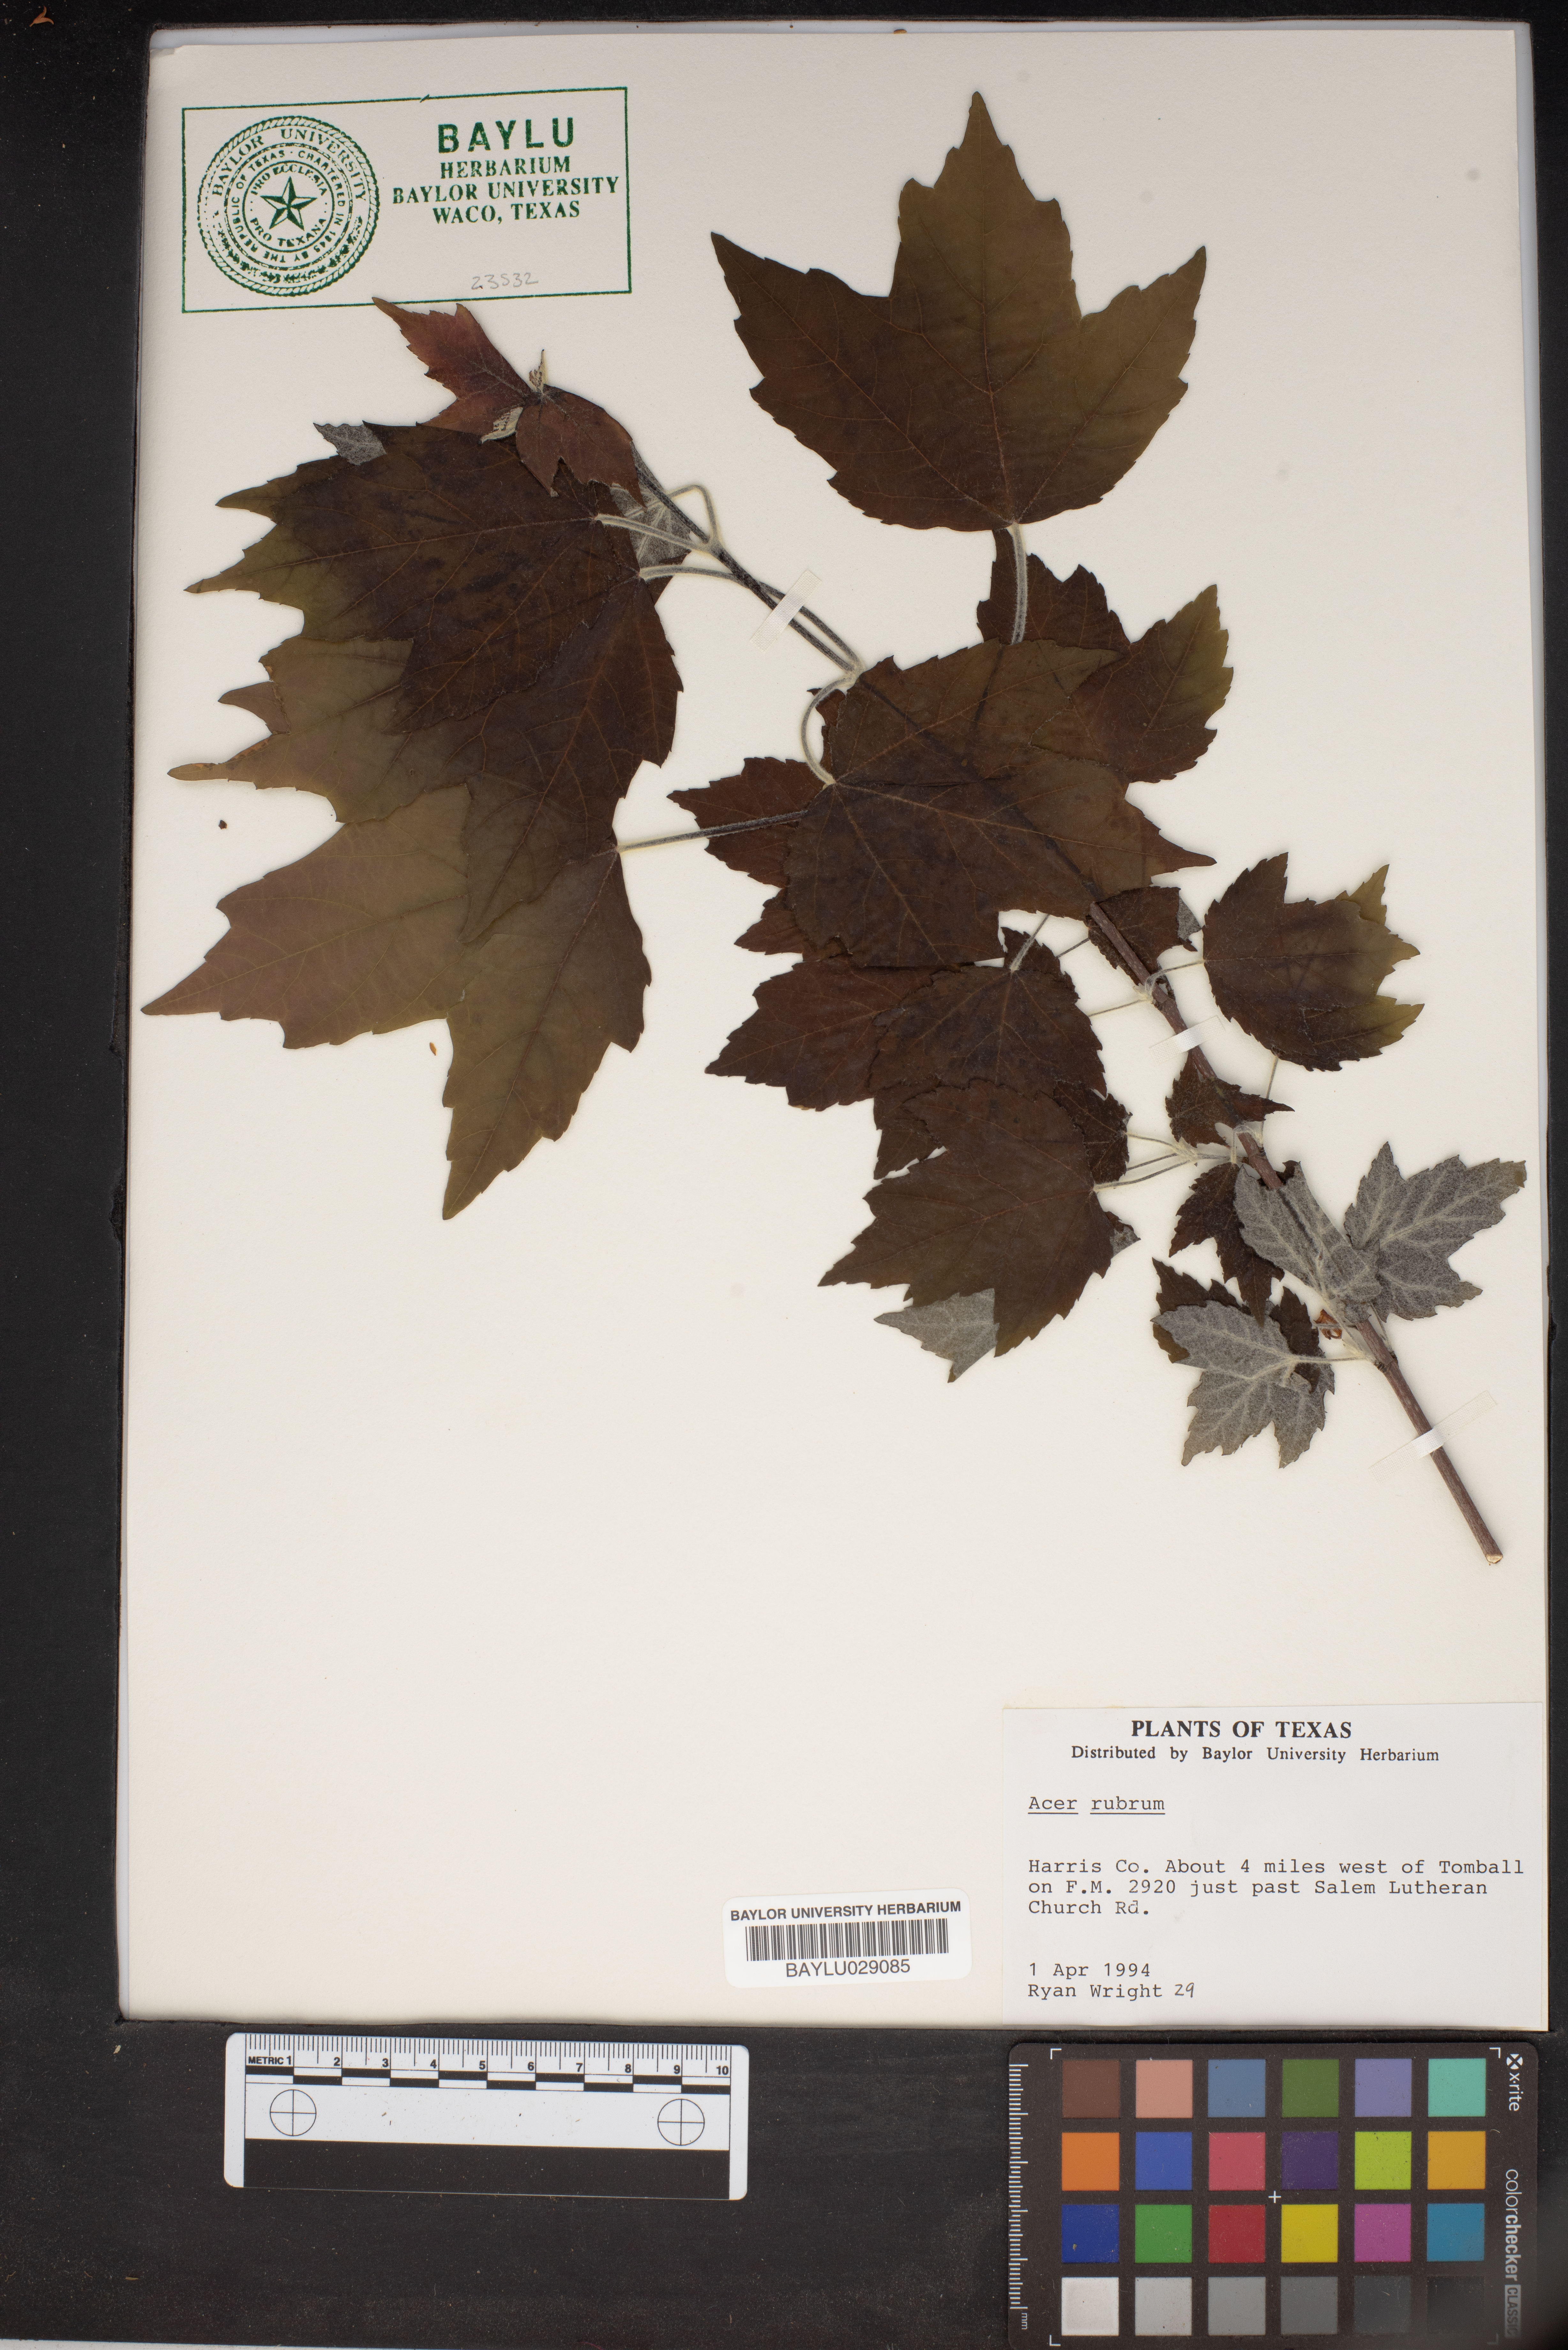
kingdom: Plantae
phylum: Tracheophyta
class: Magnoliopsida
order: Sapindales
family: Sapindaceae
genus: Acer
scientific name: Acer rubrum
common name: Red maple
